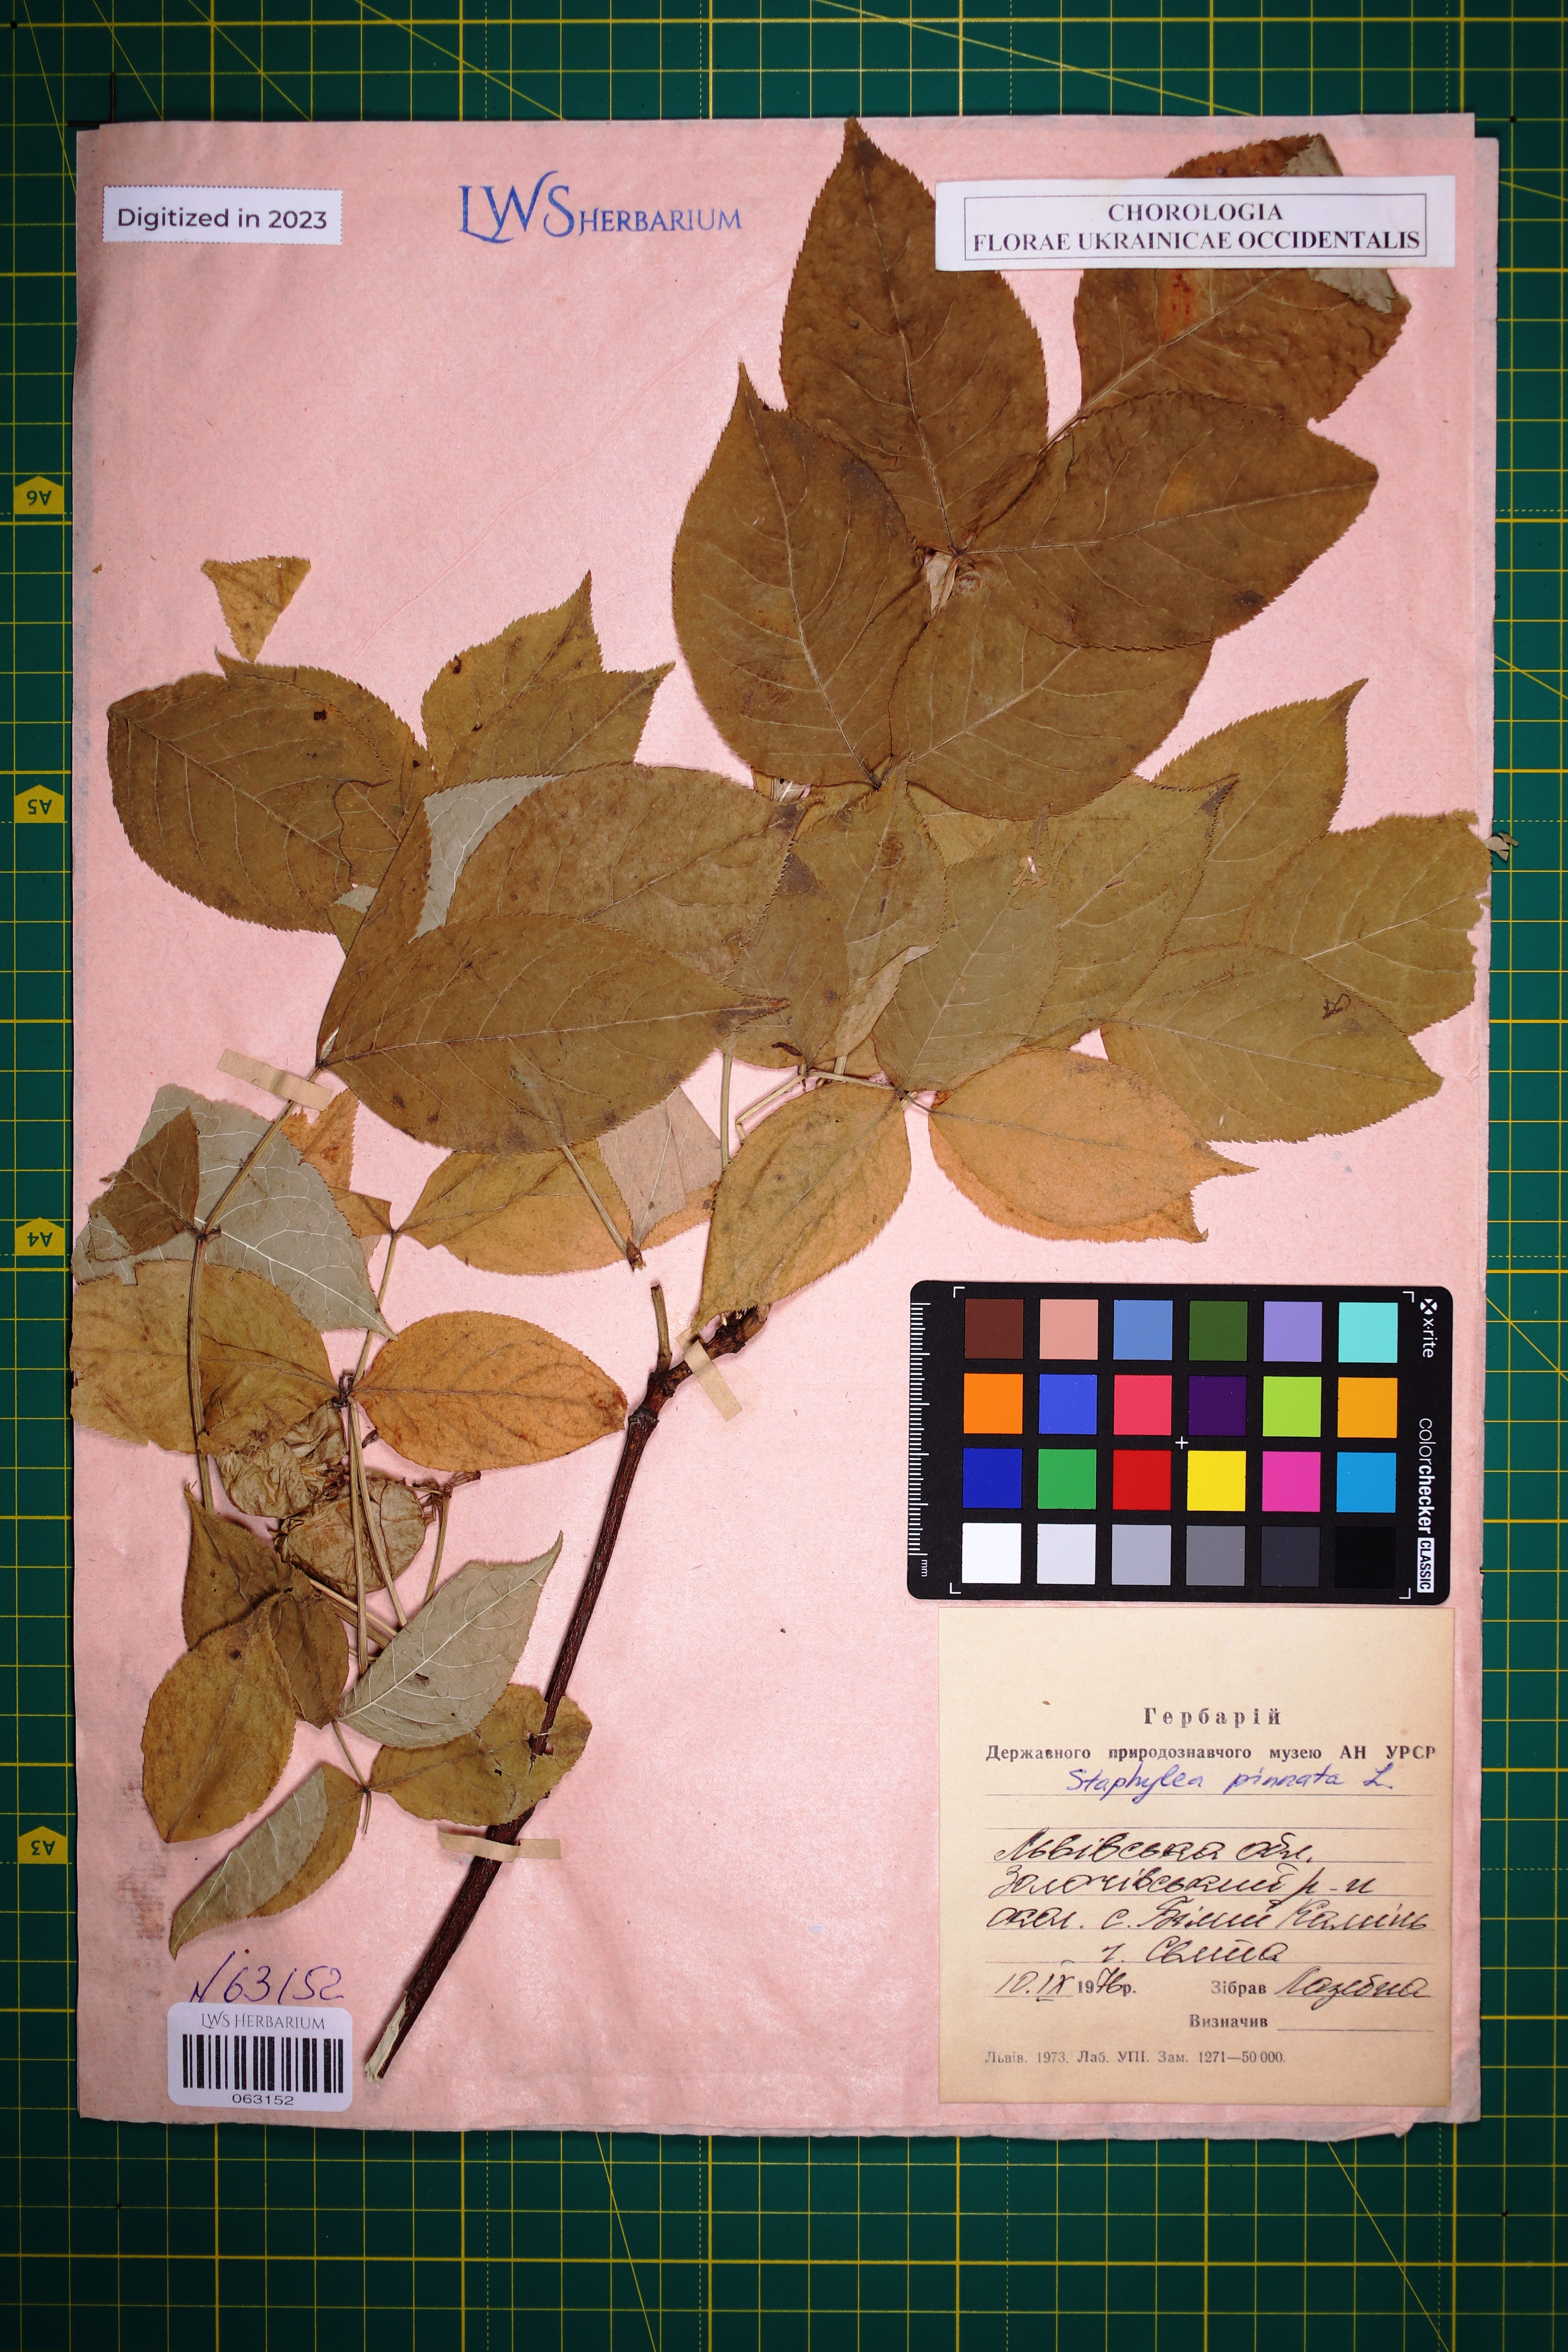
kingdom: Plantae
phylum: Tracheophyta
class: Magnoliopsida
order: Crossosomatales
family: Staphyleaceae
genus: Staphylea
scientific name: Staphylea pinnata
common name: Bladdernut
